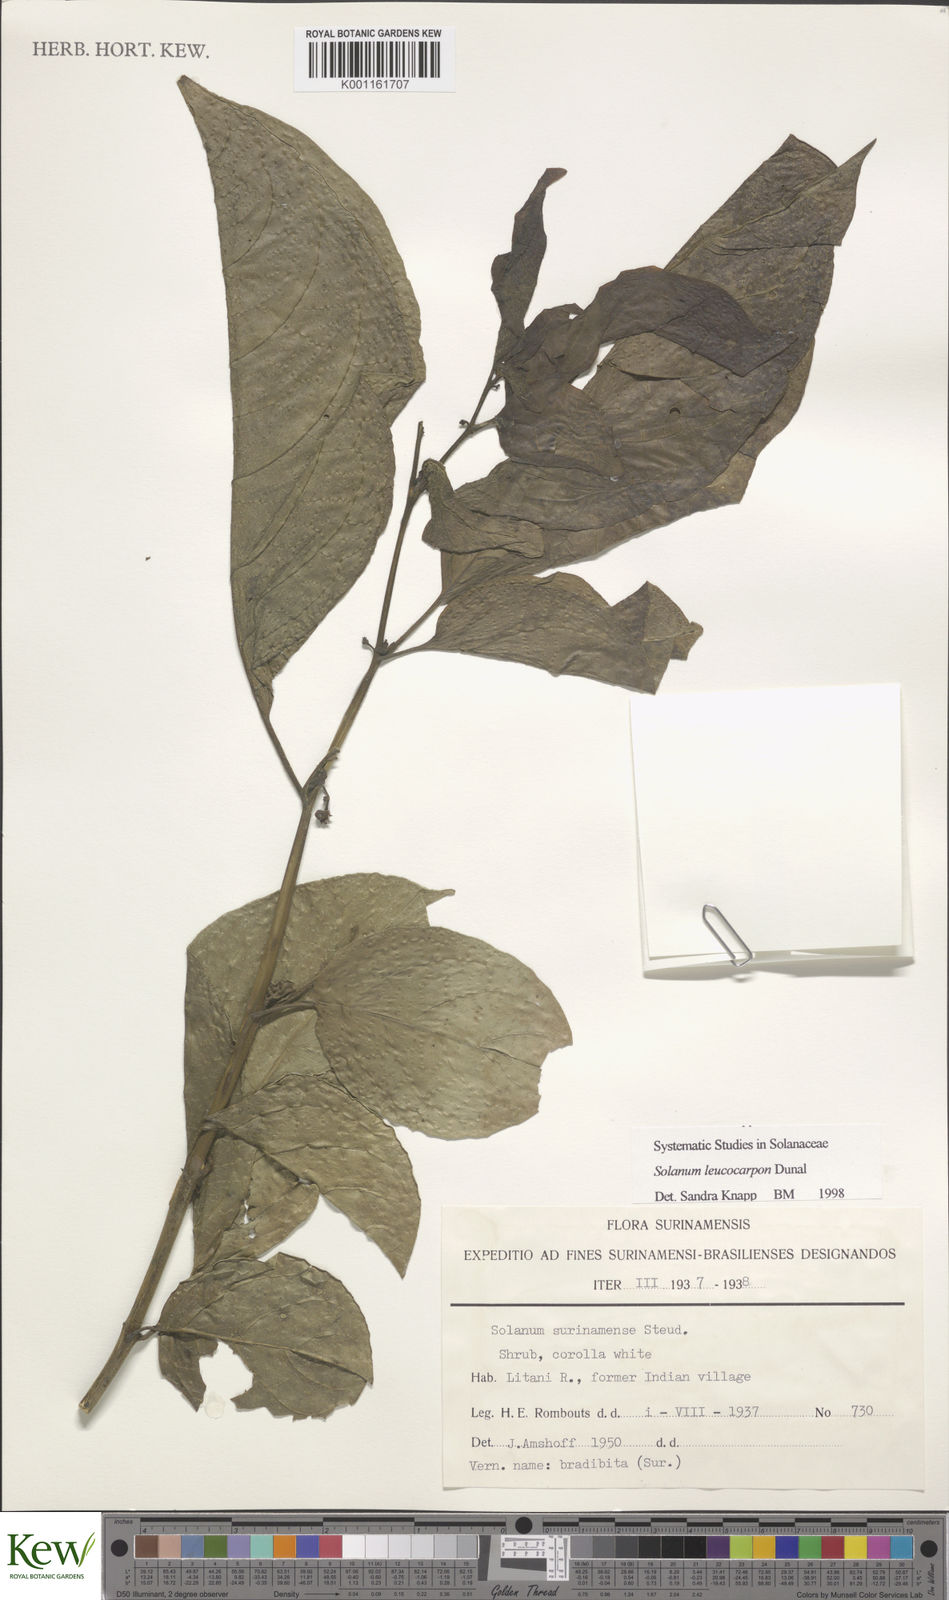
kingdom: Plantae
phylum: Tracheophyta
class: Magnoliopsida
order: Solanales
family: Solanaceae
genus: Solanum
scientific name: Solanum leucocarpon
